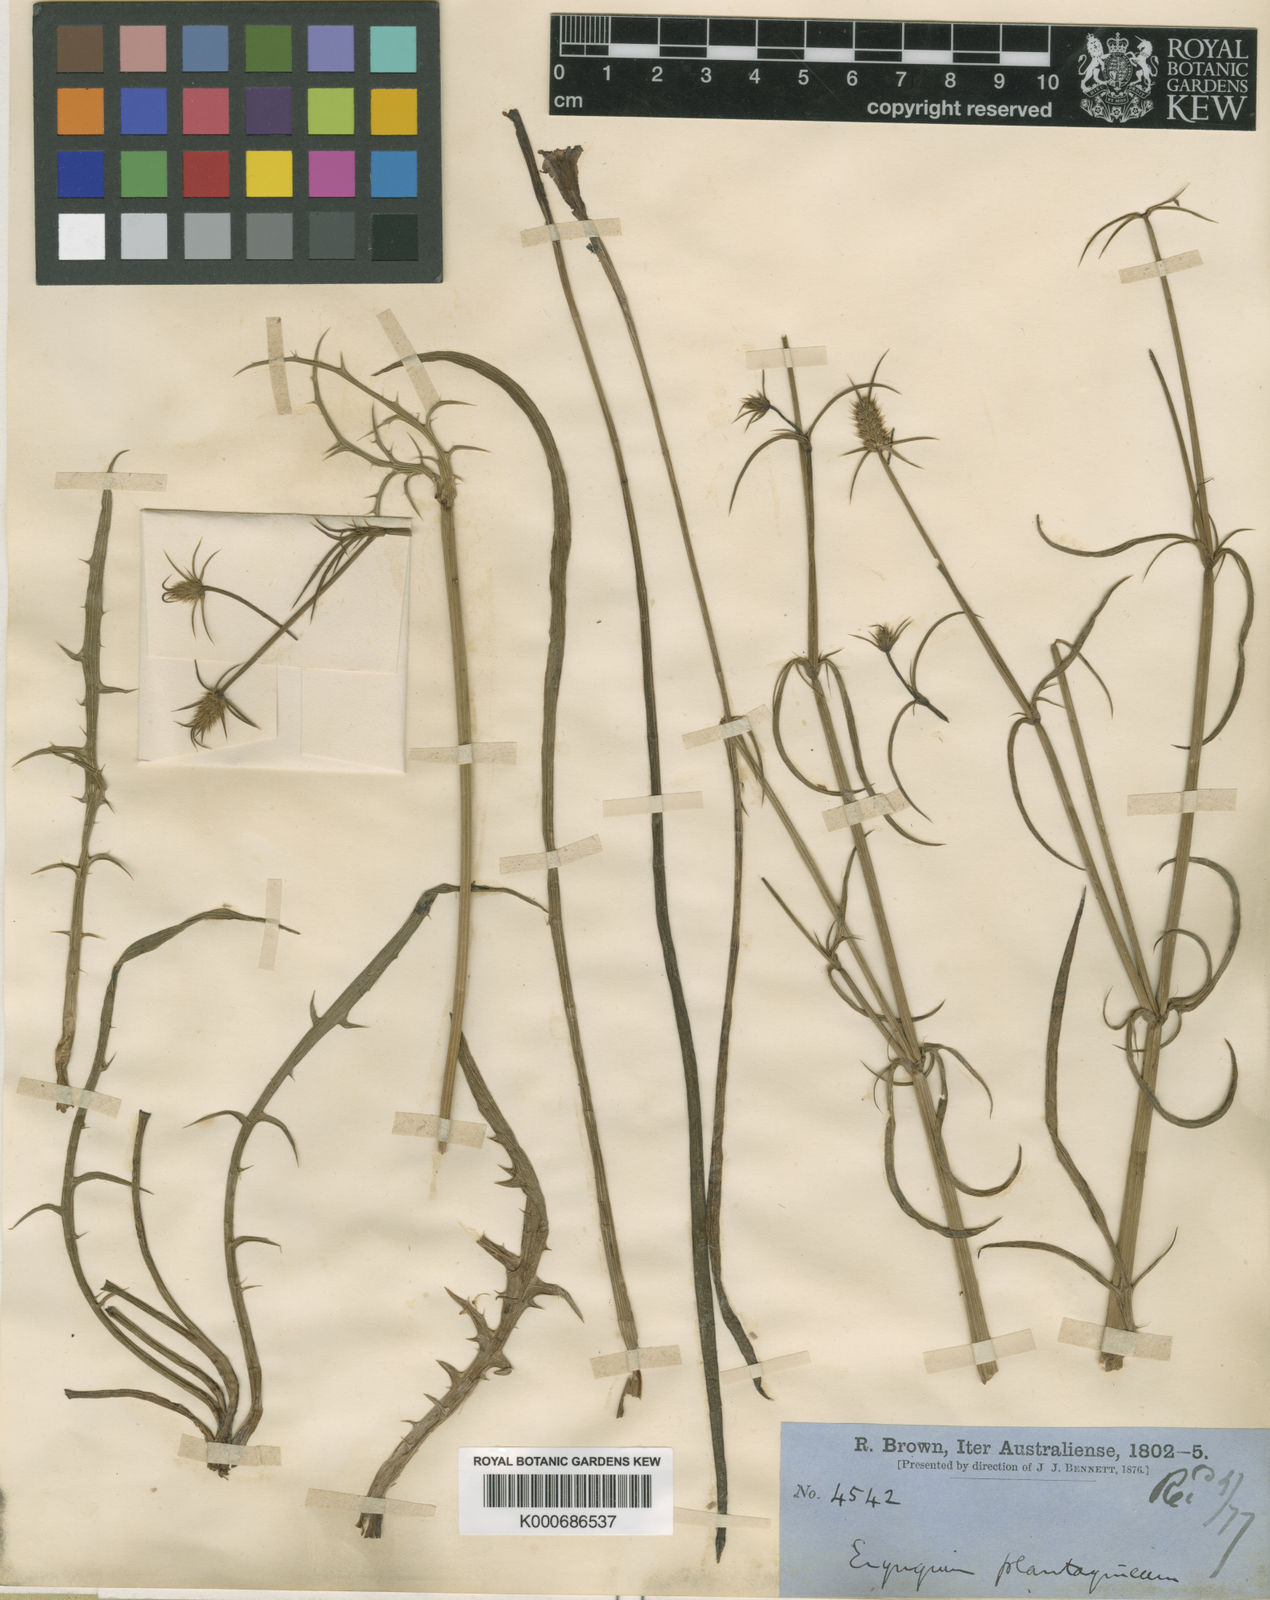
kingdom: Plantae
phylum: Tracheophyta
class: Magnoliopsida
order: Apiales
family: Apiaceae
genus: Eryngium
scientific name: Eryngium plantagineum
